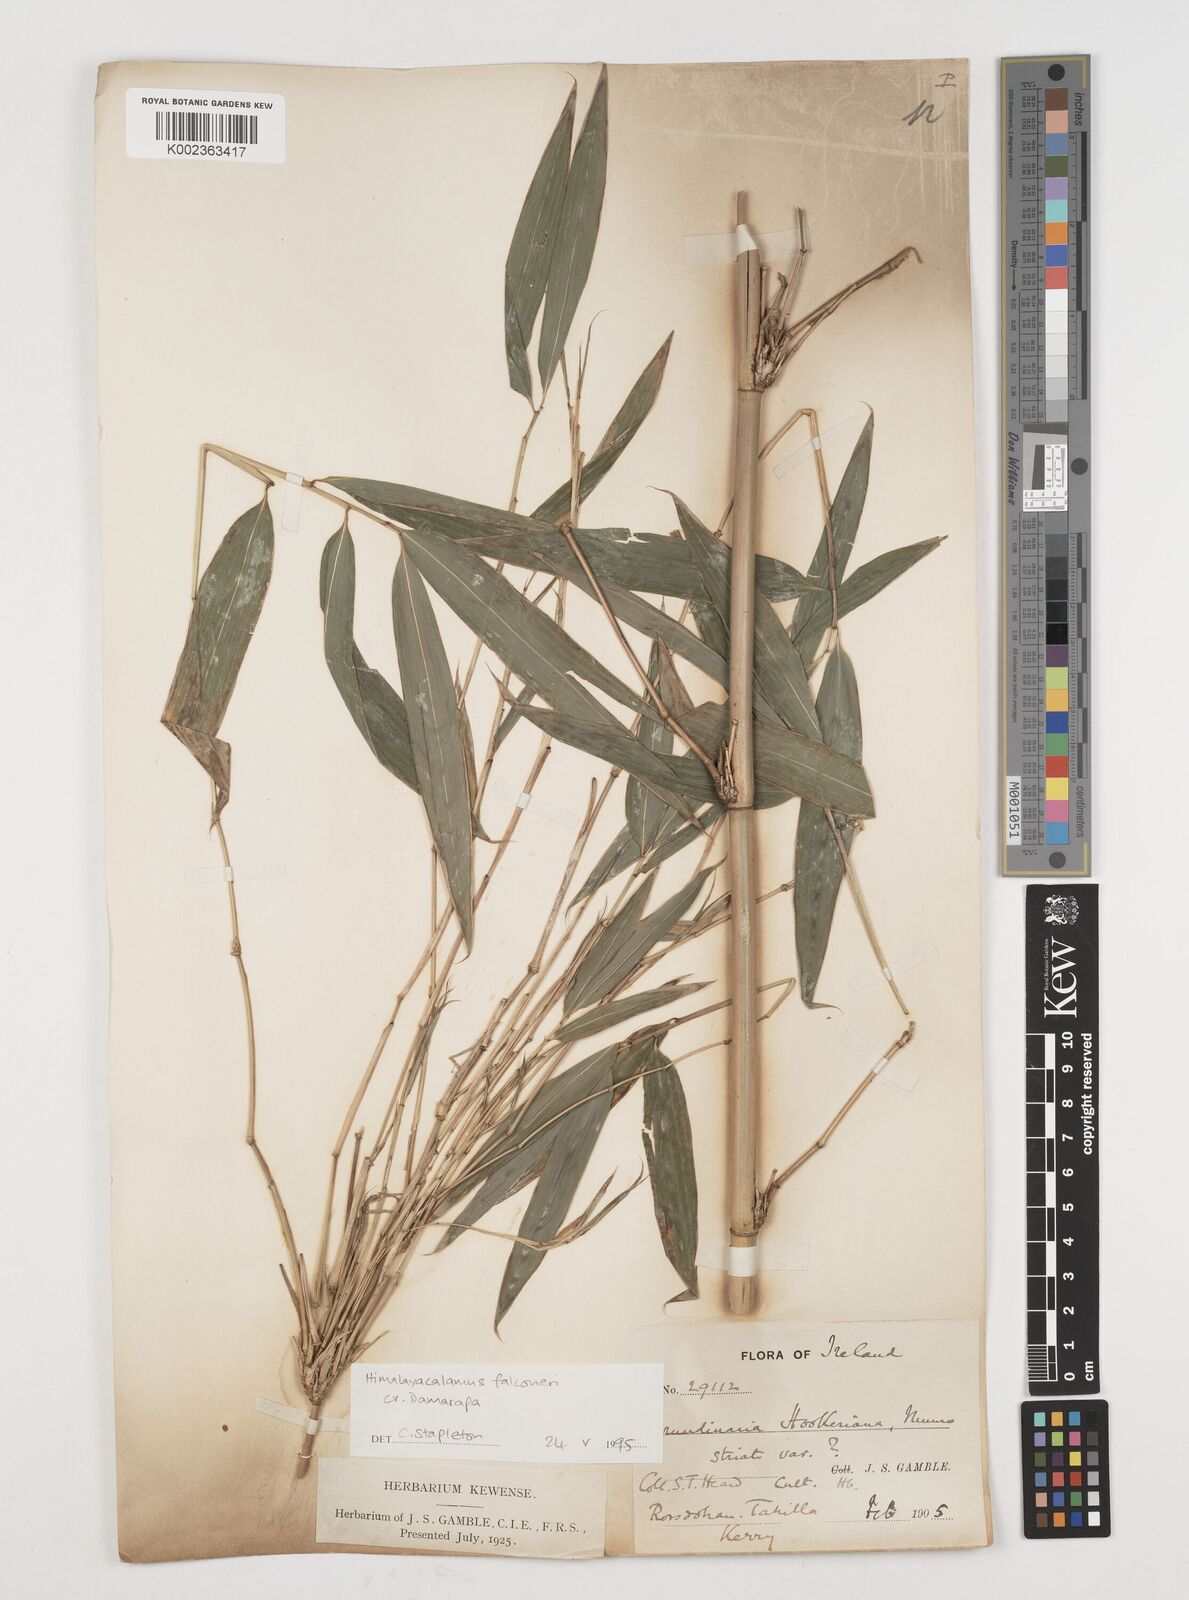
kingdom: Plantae
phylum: Tracheophyta
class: Liliopsida
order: Poales
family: Poaceae
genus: Himalayacalamus
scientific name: Himalayacalamus falconeri
